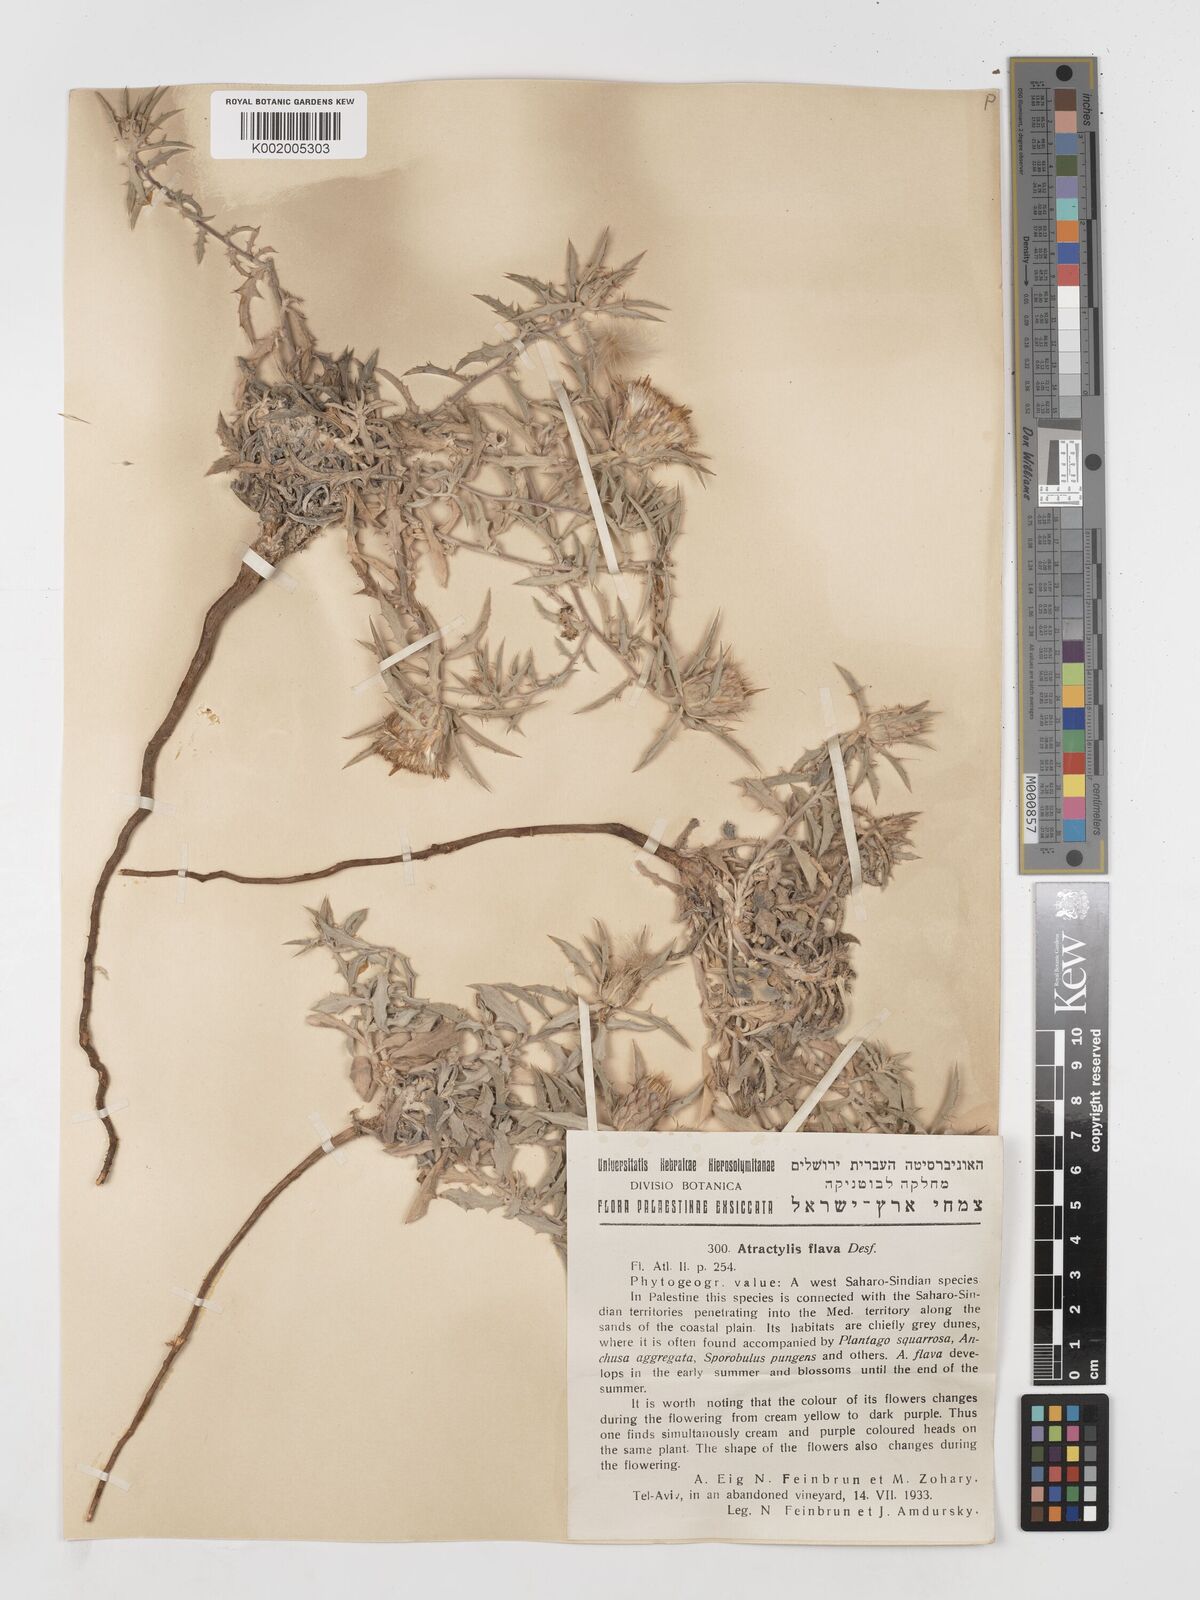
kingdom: Plantae
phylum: Tracheophyta
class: Magnoliopsida
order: Asterales
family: Asteraceae
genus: Atractylis
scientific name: Atractylis carduus
